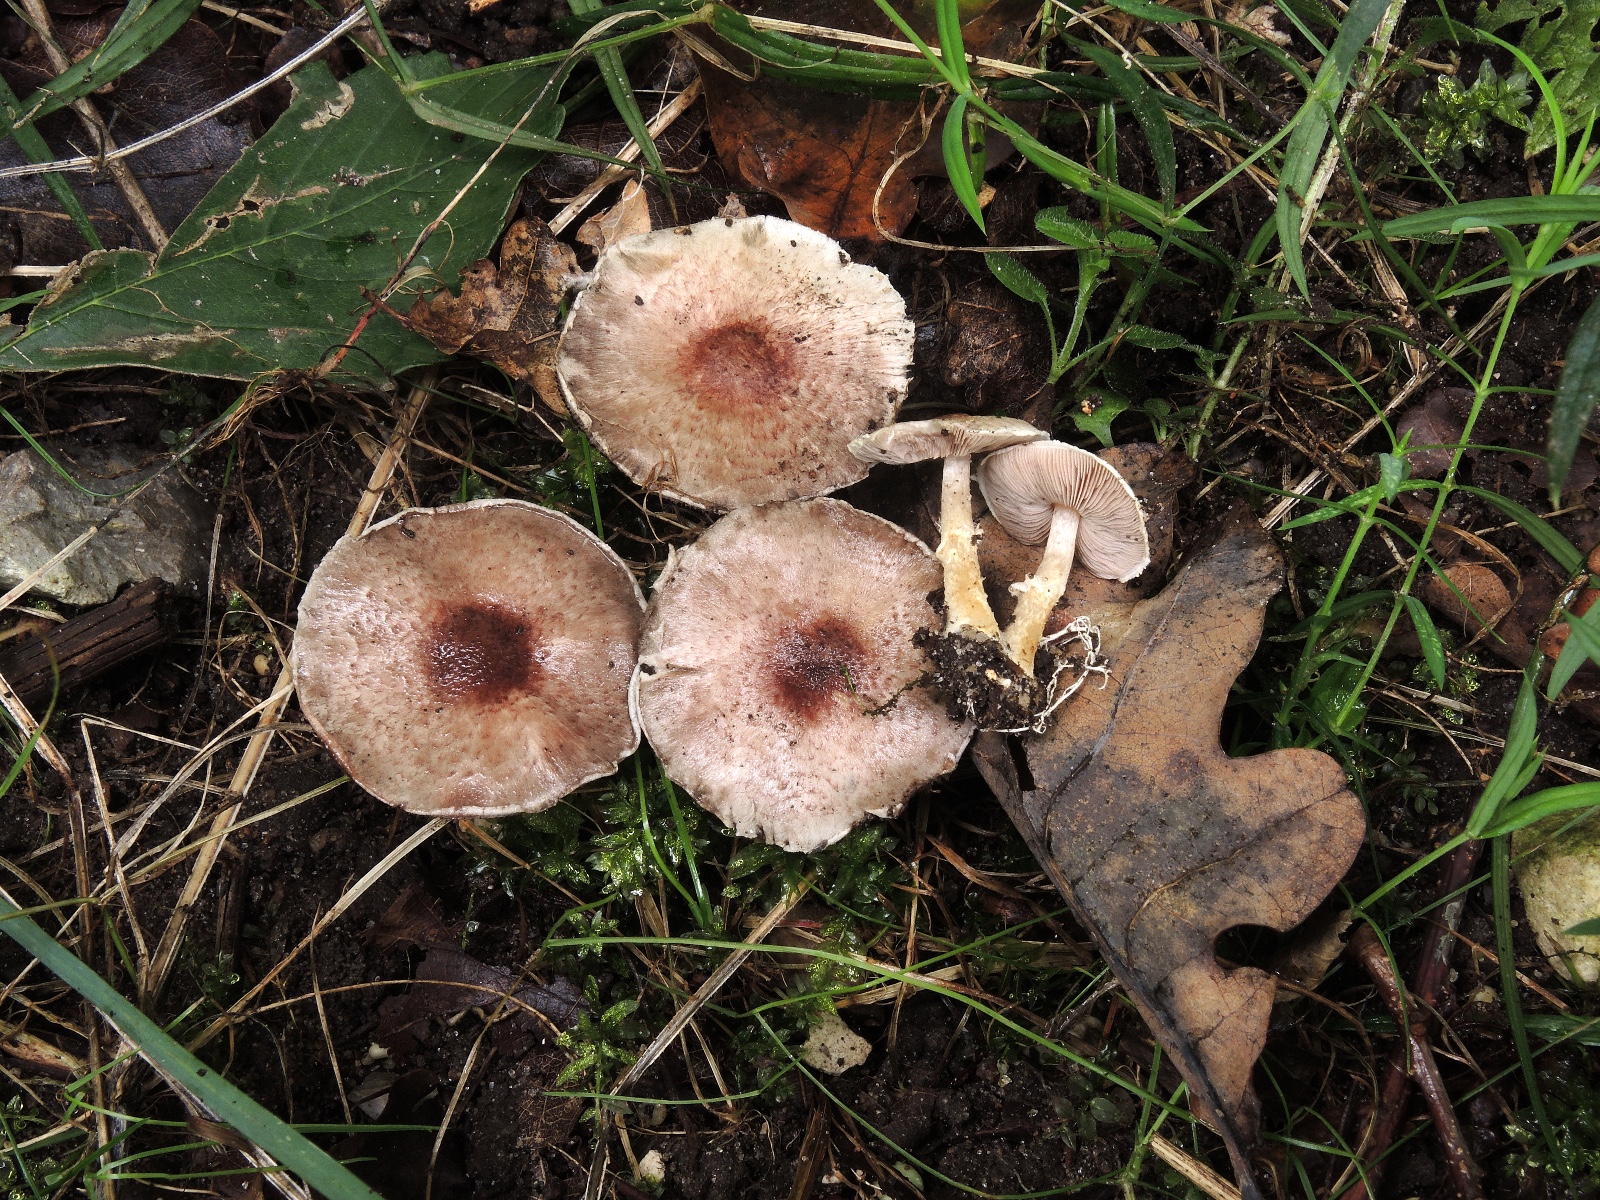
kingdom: Fungi
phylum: Basidiomycota
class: Agaricomycetes
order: Agaricales
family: Agaricaceae
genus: Agaricus
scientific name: Agaricus dulcidulus
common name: blegrød champignon
